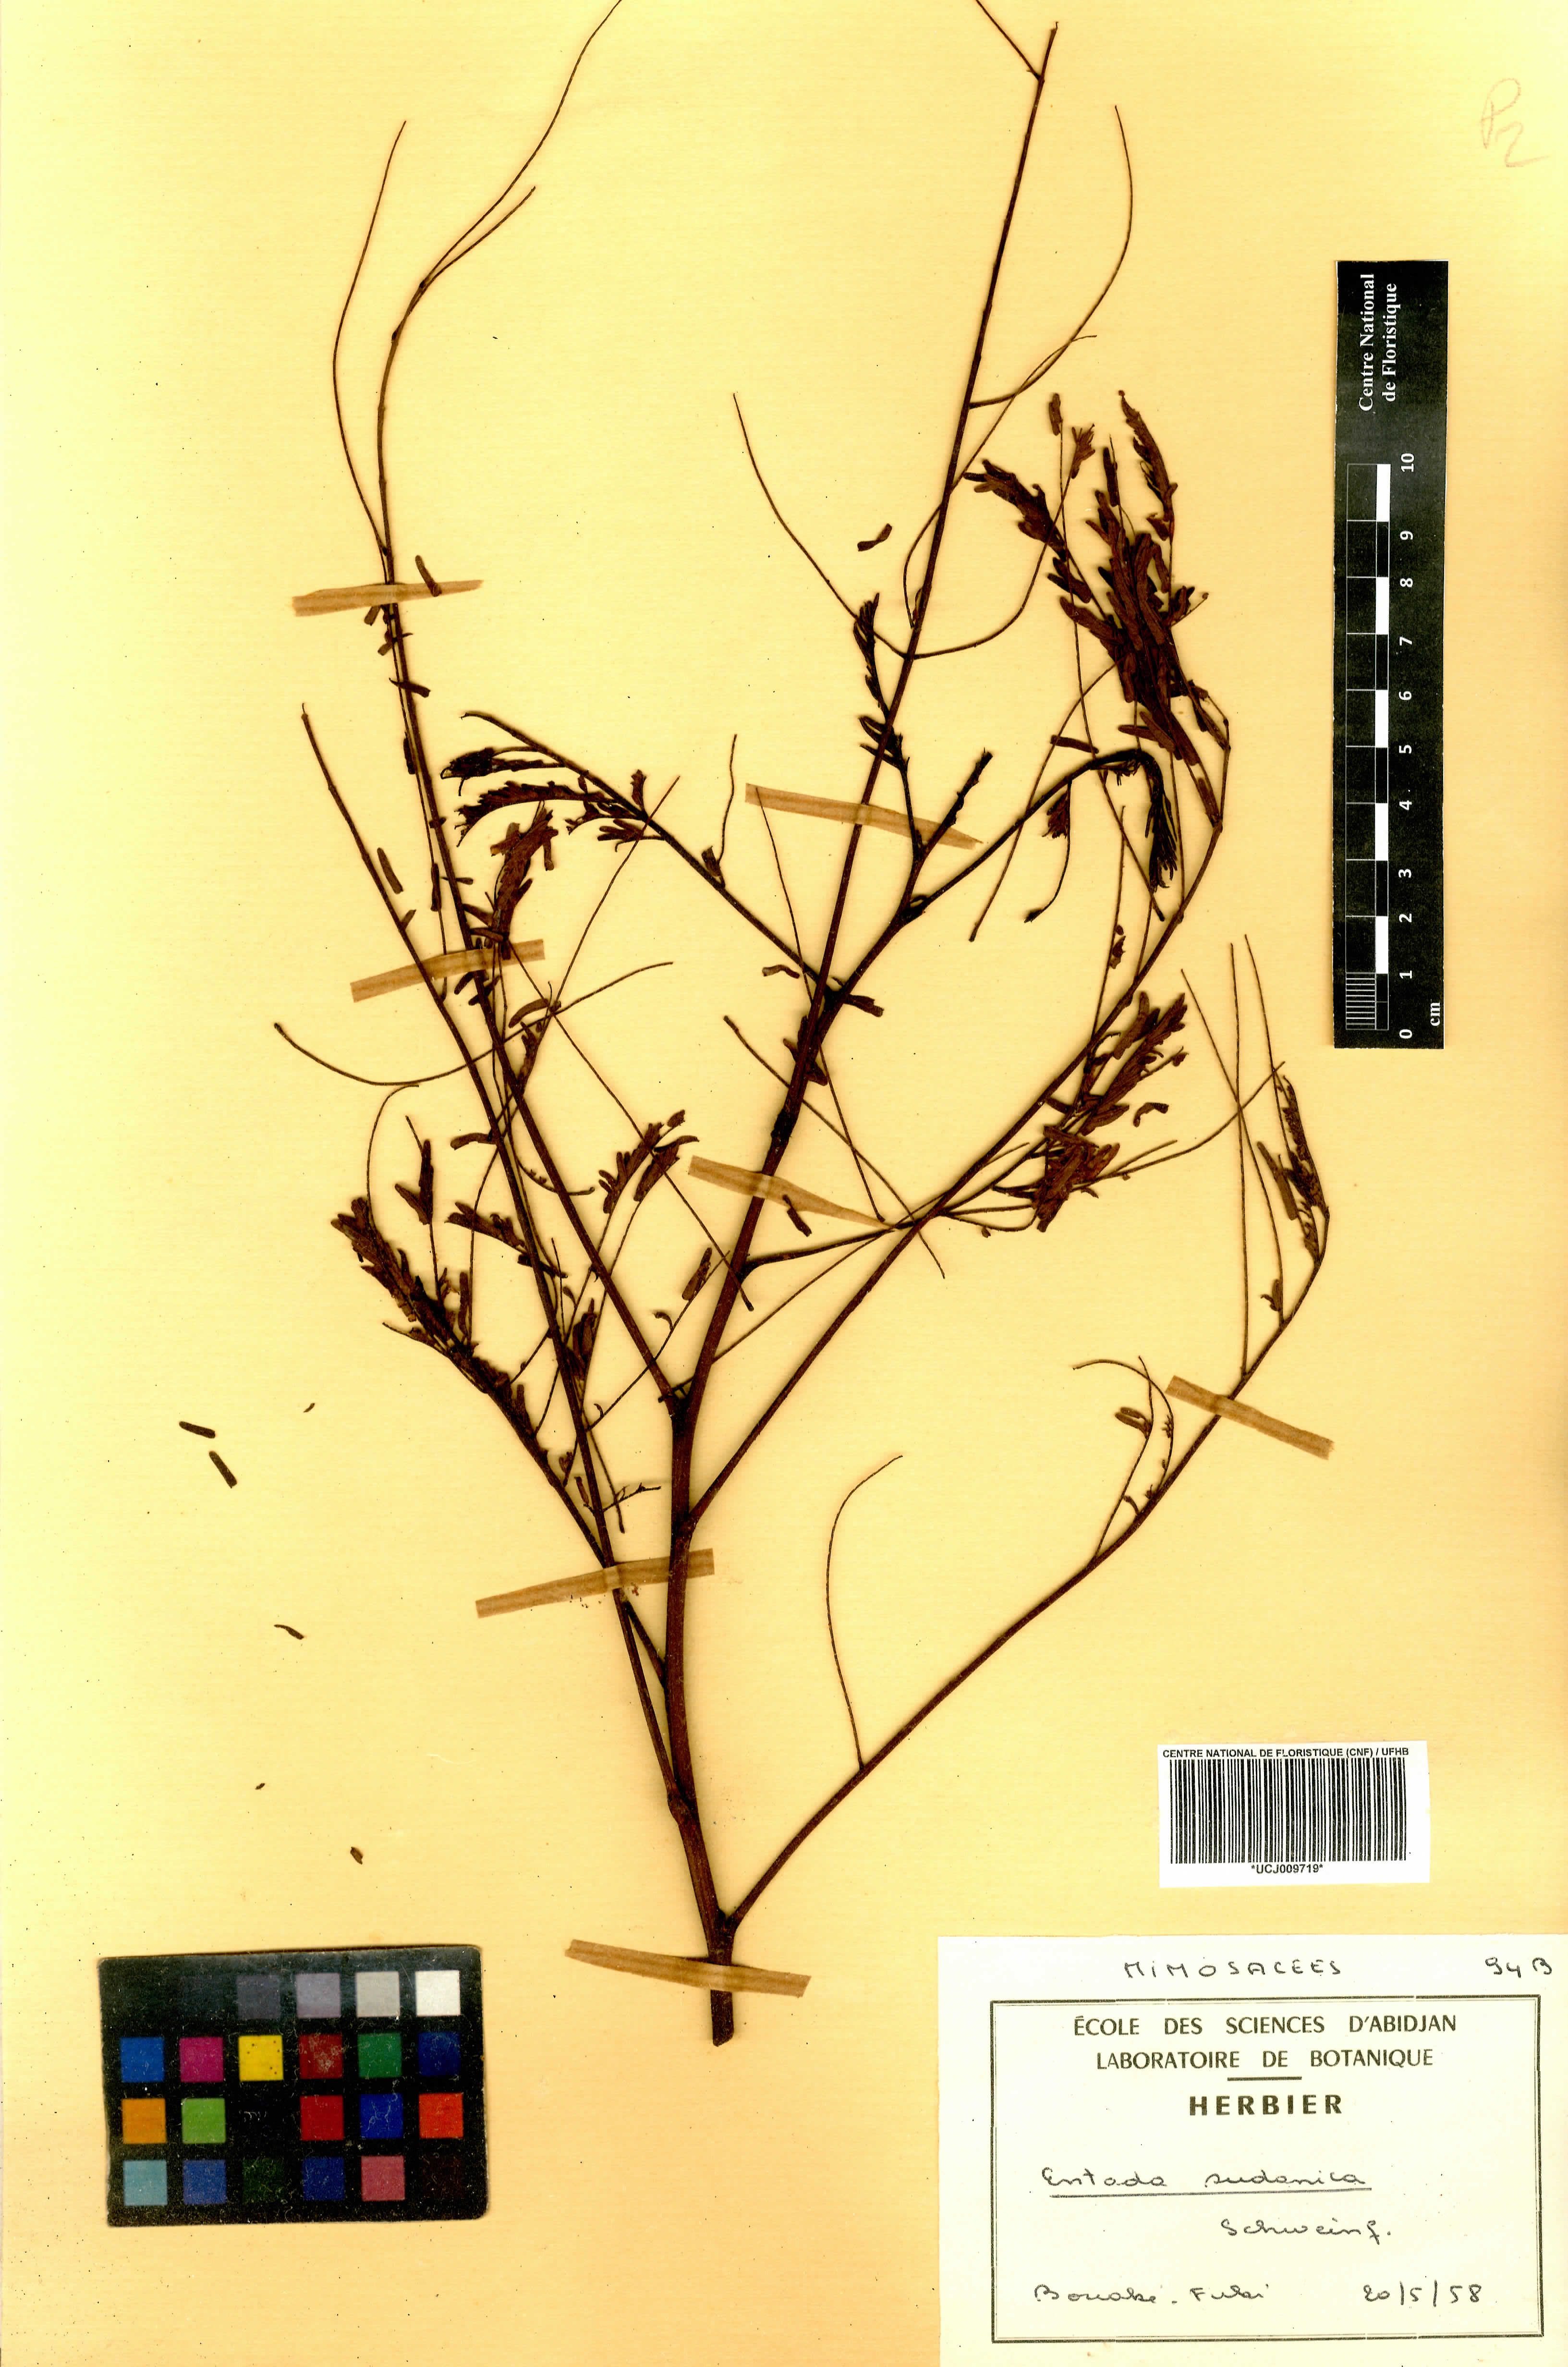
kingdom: Plantae
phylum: Tracheophyta
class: Magnoliopsida
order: Fabales
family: Fabaceae
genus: Entada
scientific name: Entada africana
